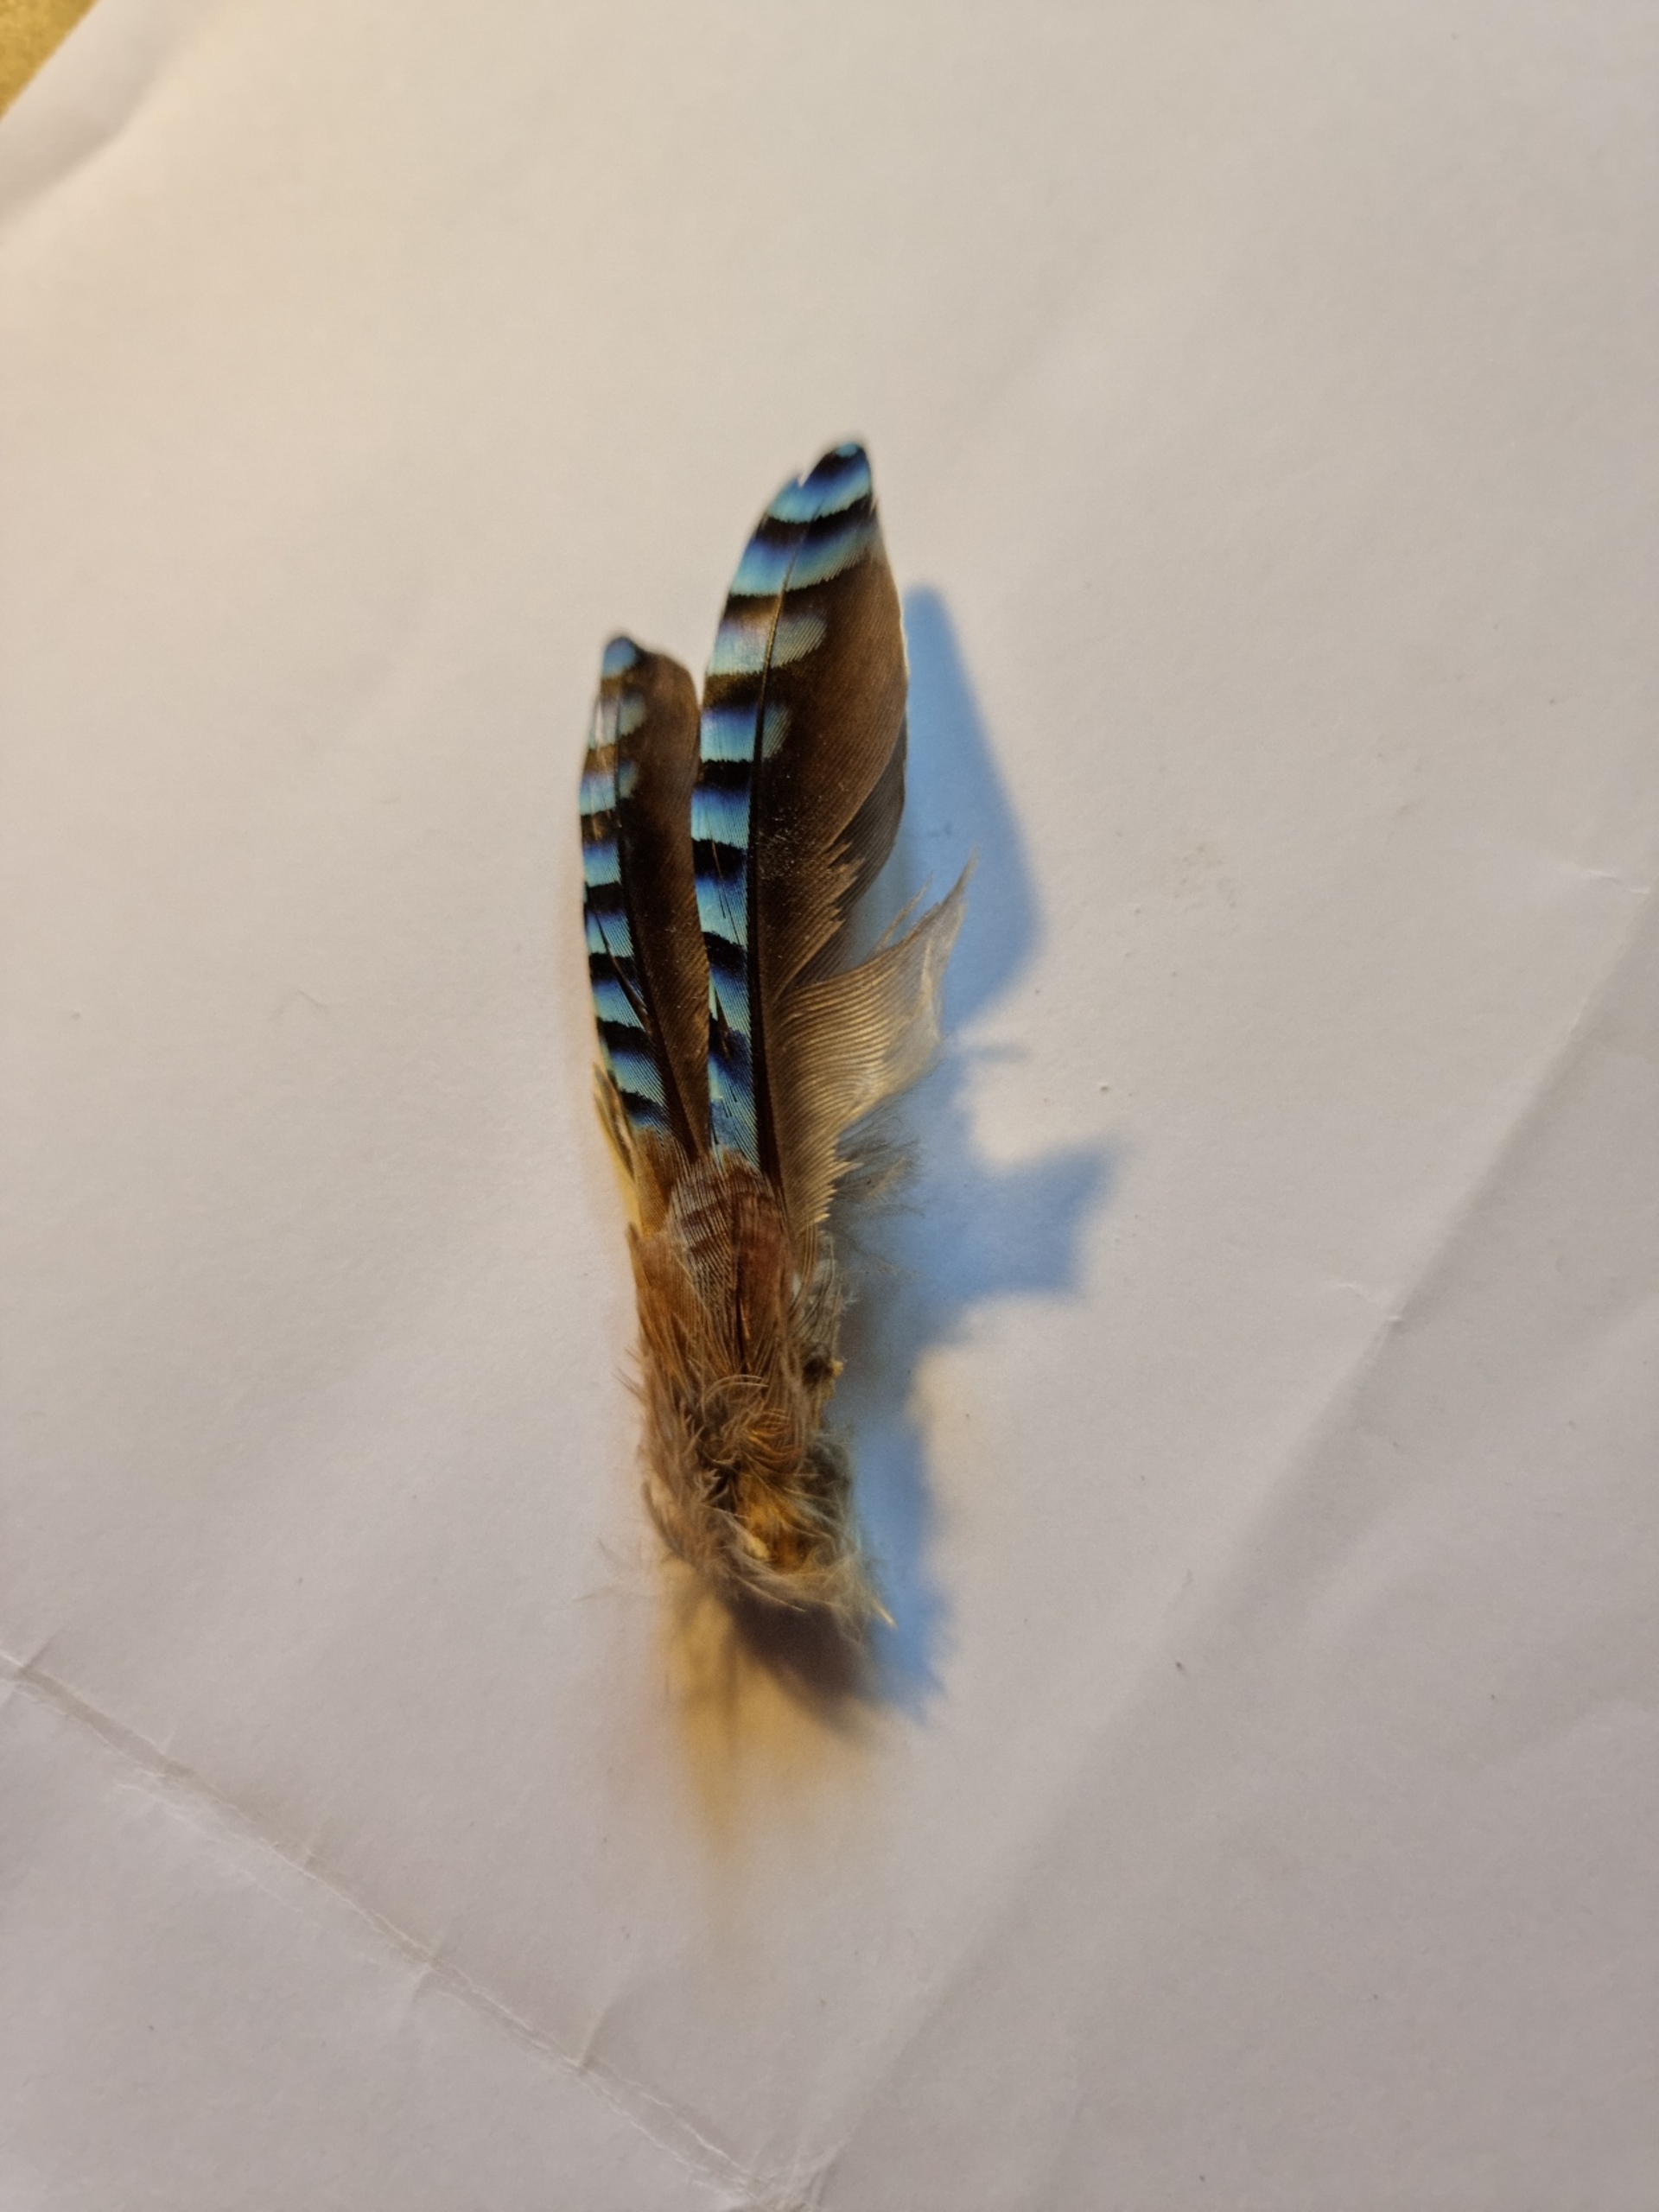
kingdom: Animalia
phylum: Chordata
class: Aves
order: Passeriformes
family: Corvidae
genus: Garrulus
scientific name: Garrulus glandarius
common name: Skovskade
